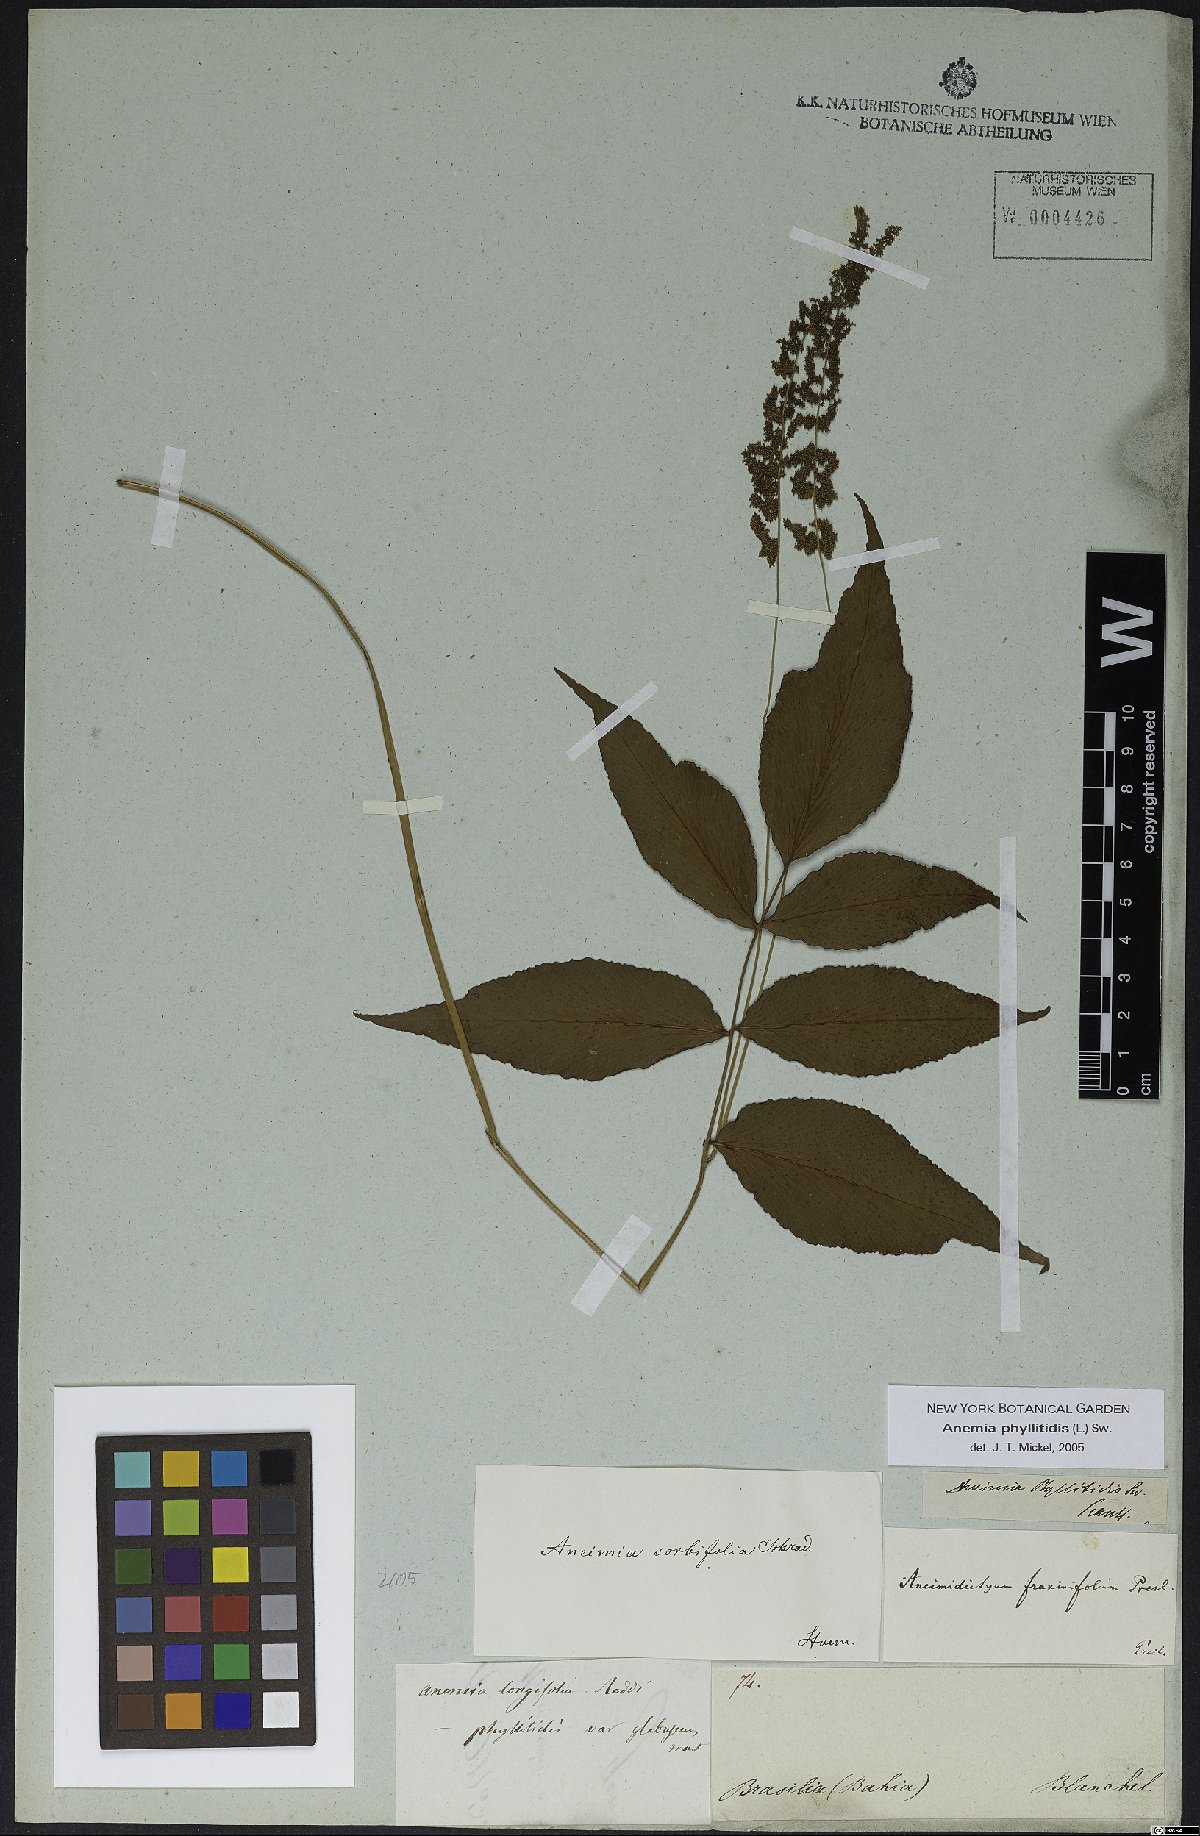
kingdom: Plantae
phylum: Tracheophyta
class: Polypodiopsida
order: Schizaeales
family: Anemiaceae
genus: Anemia
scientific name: Anemia phyllitidis
